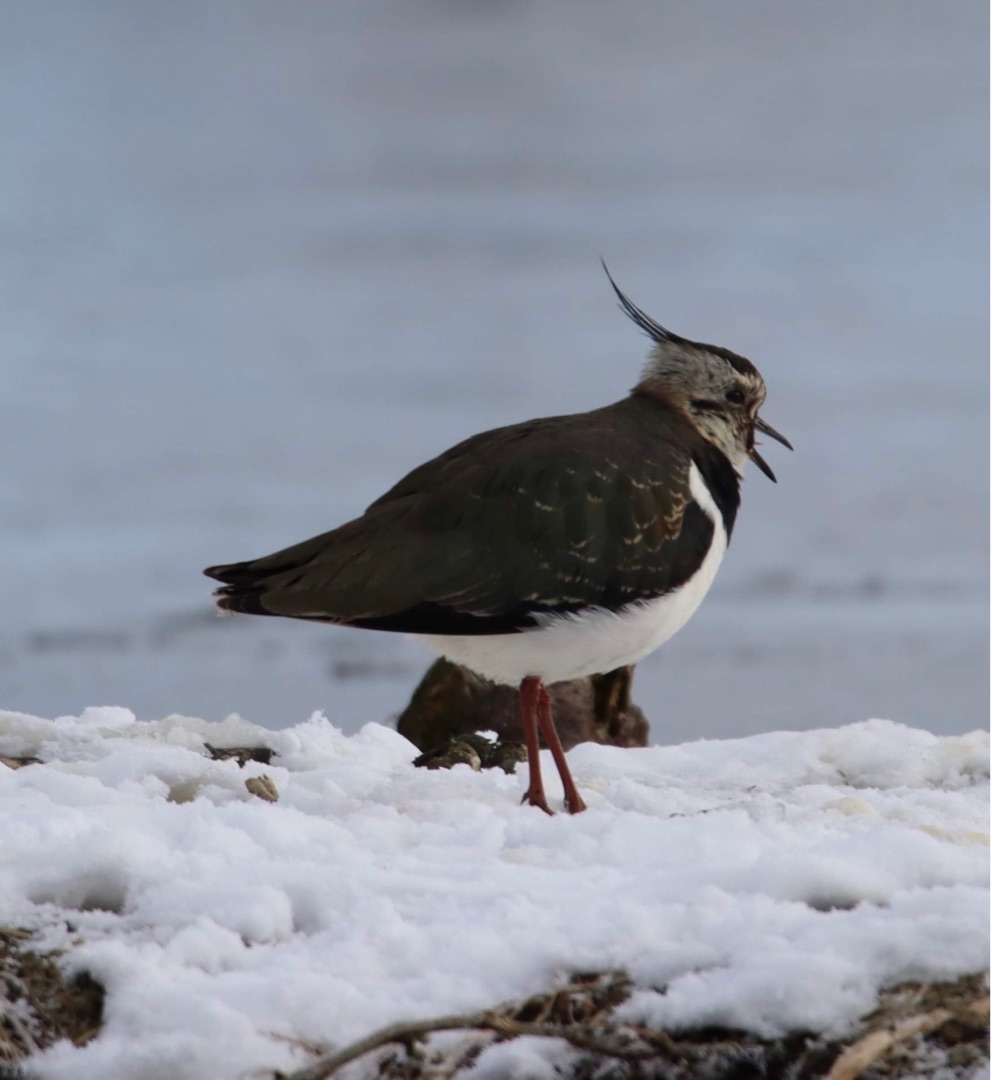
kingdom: Animalia
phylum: Chordata
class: Aves
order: Charadriiformes
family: Charadriidae
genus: Vanellus
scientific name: Vanellus vanellus
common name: Vibe
